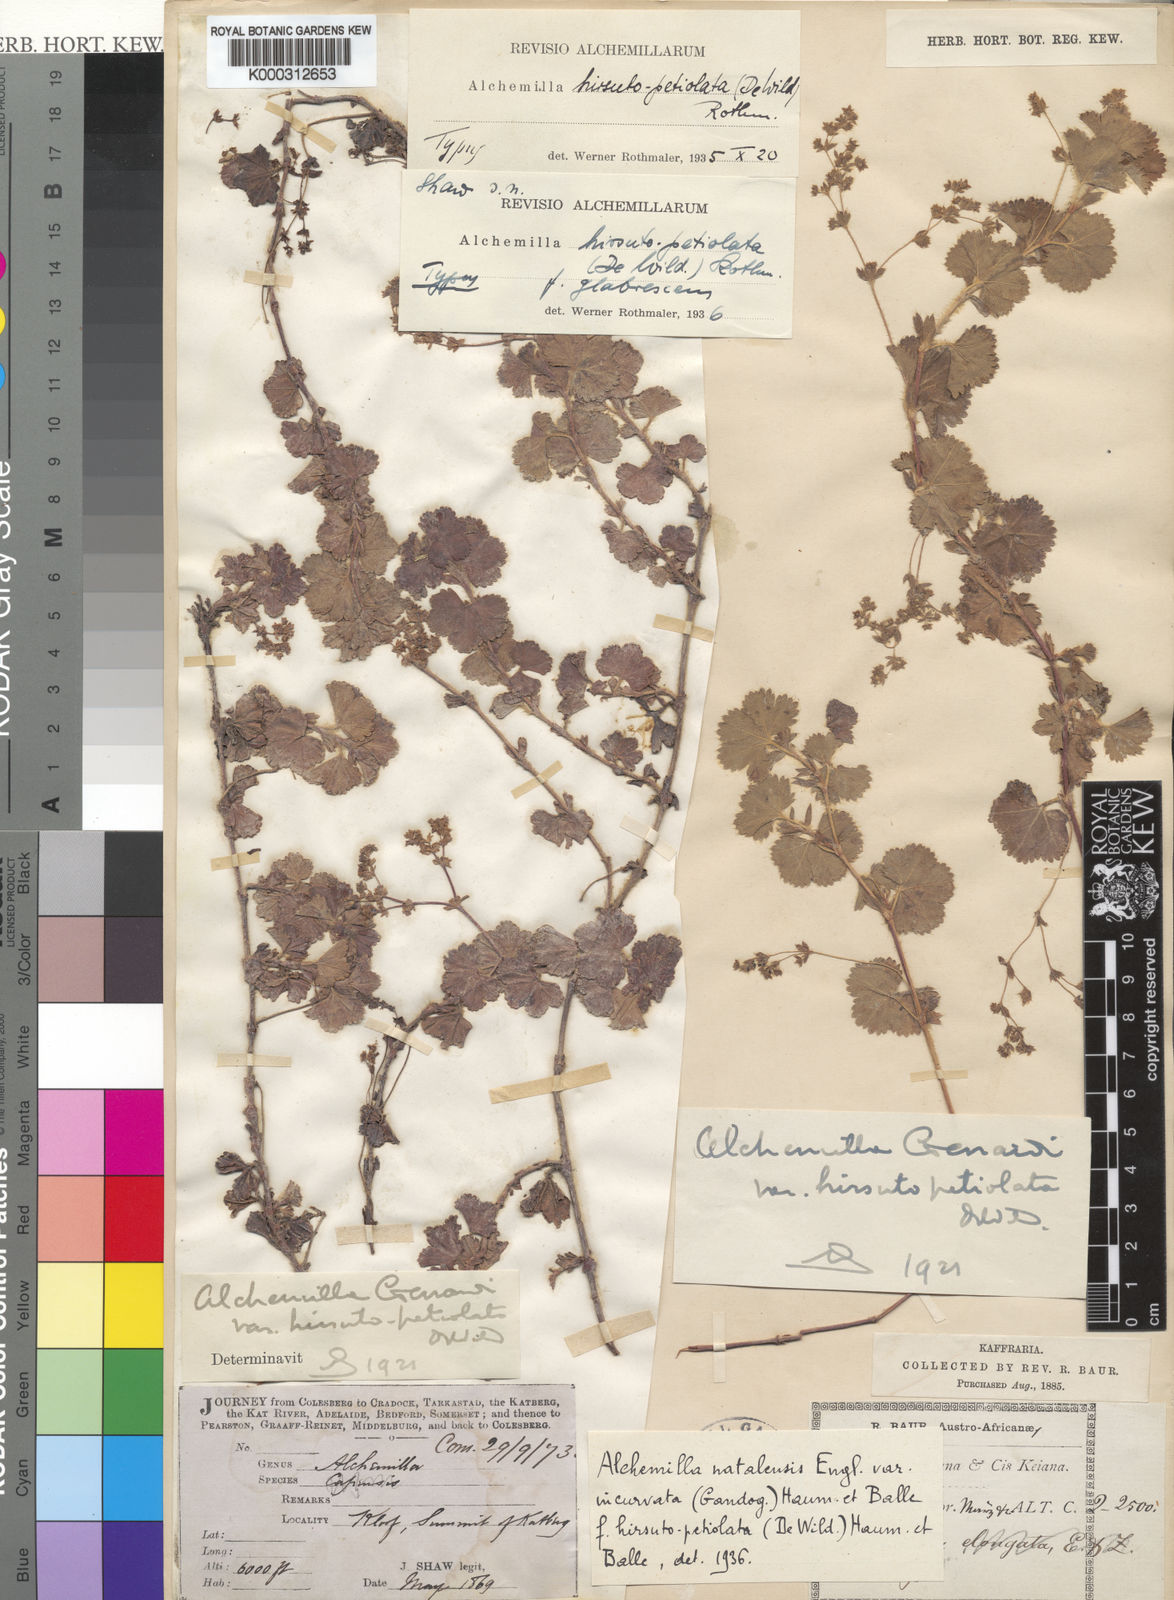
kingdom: Plantae
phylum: Tracheophyta
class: Magnoliopsida
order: Rosales
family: Rosaceae
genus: Alchemilla
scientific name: Alchemilla natalensis
